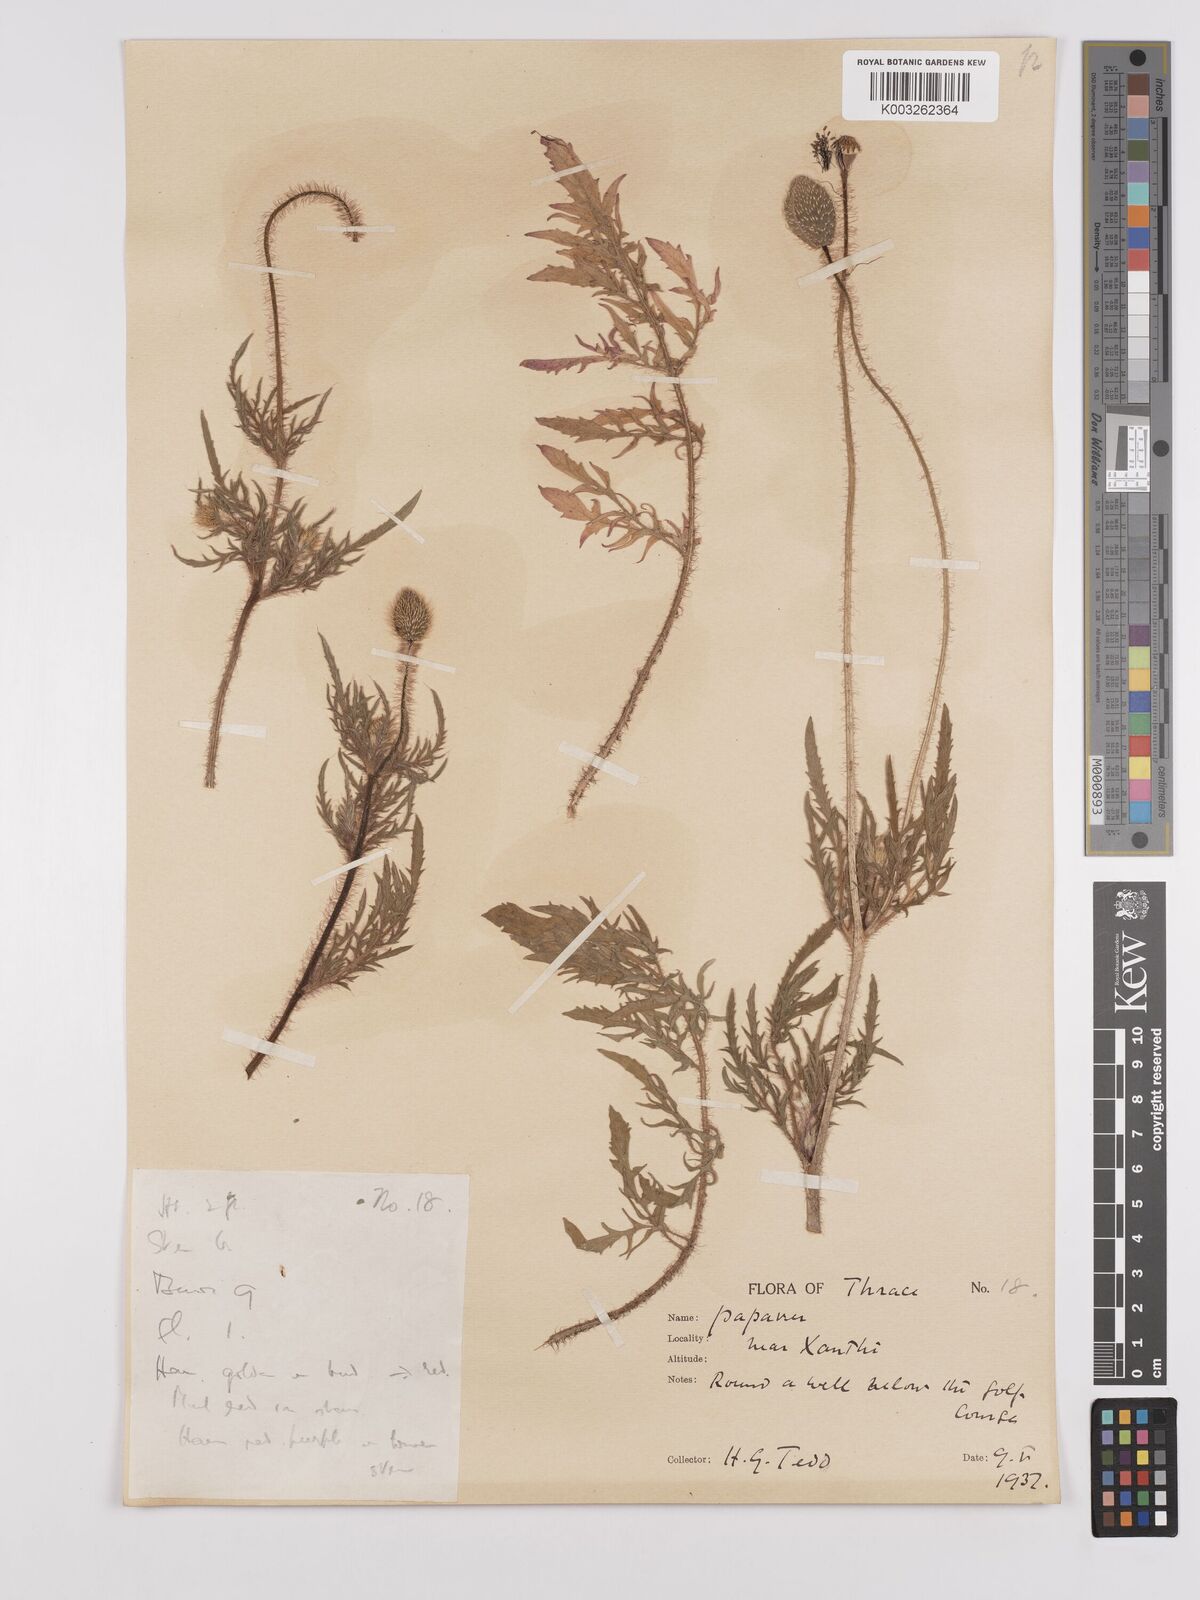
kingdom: Plantae
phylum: Tracheophyta
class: Magnoliopsida
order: Ranunculales
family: Papaveraceae
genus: Papaver
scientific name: Papaver rhoeas
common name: Corn poppy
